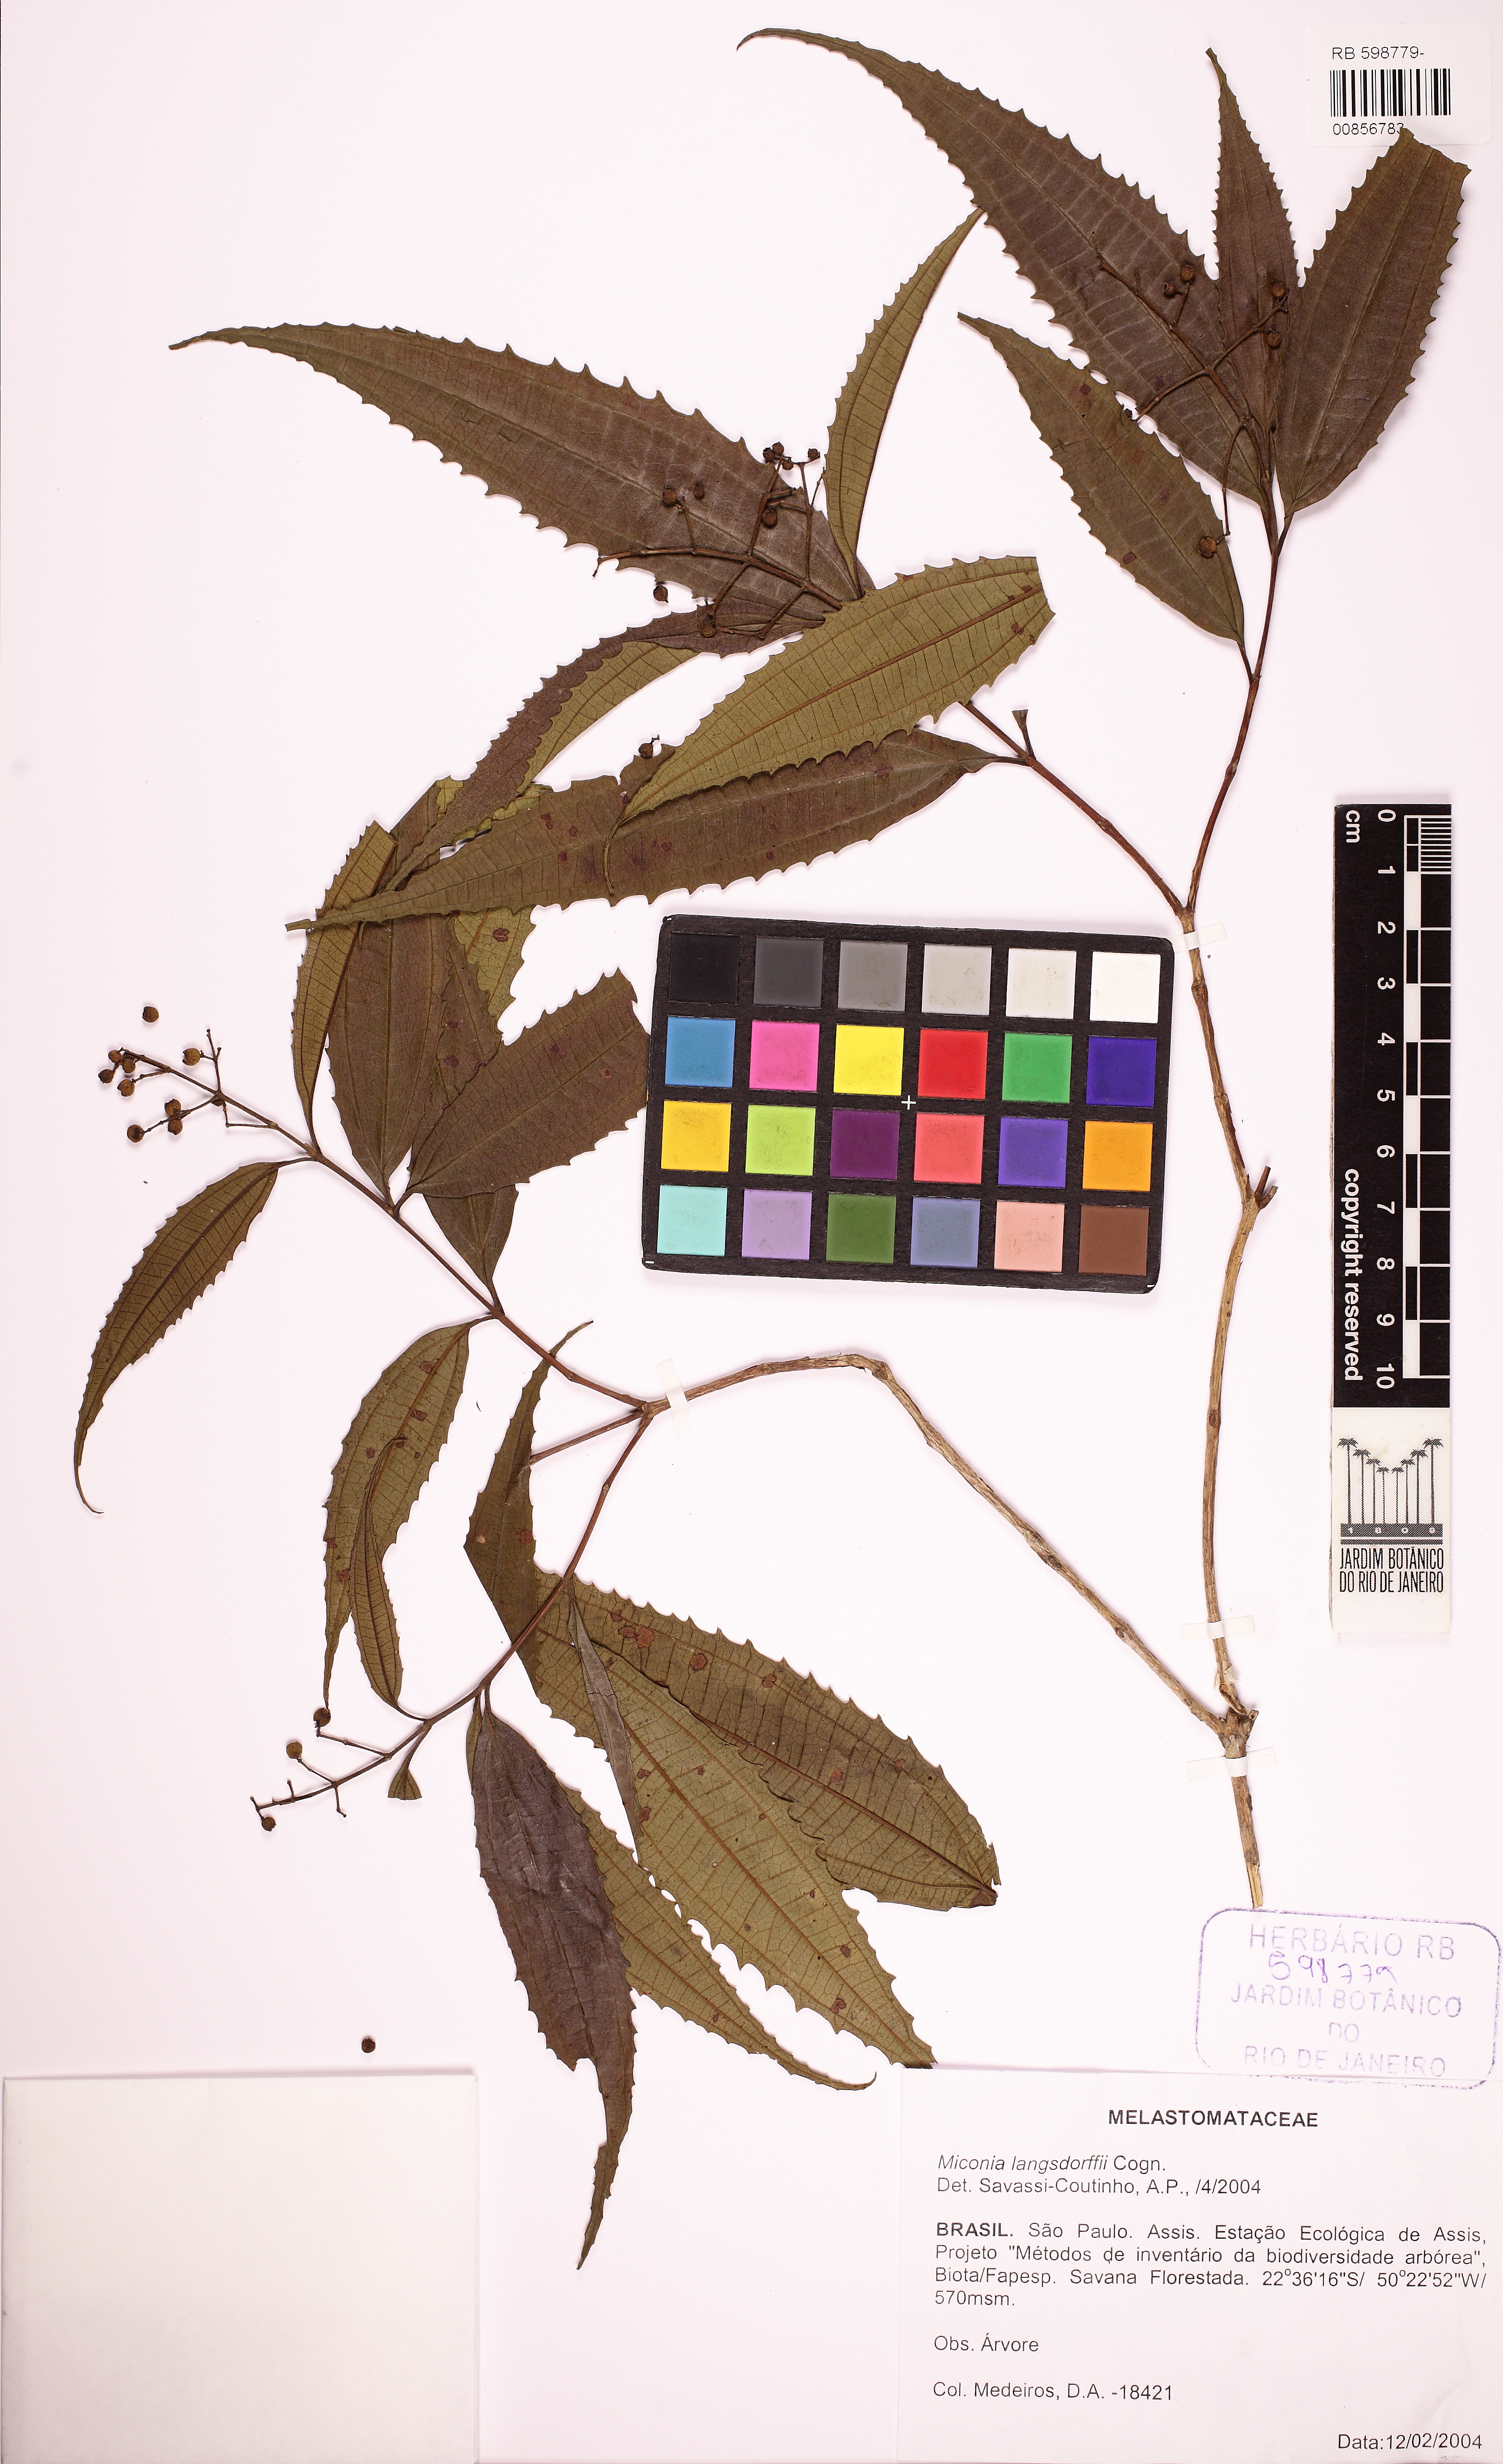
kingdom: Plantae
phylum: Tracheophyta
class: Magnoliopsida
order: Myrtales
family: Melastomataceae
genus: Miconia
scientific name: Miconia langsdorffii
